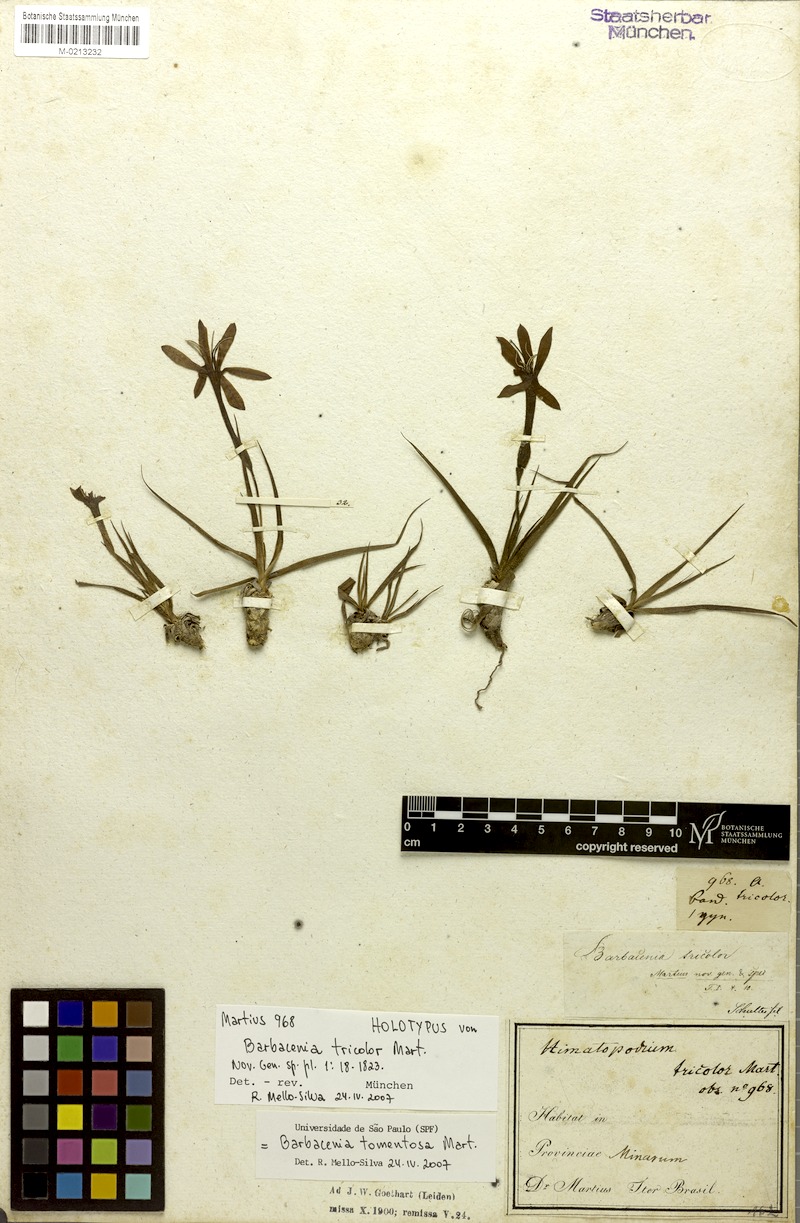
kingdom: Plantae
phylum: Tracheophyta
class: Liliopsida
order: Pandanales
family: Velloziaceae
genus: Barbacenia
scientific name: Barbacenia tomentosa
